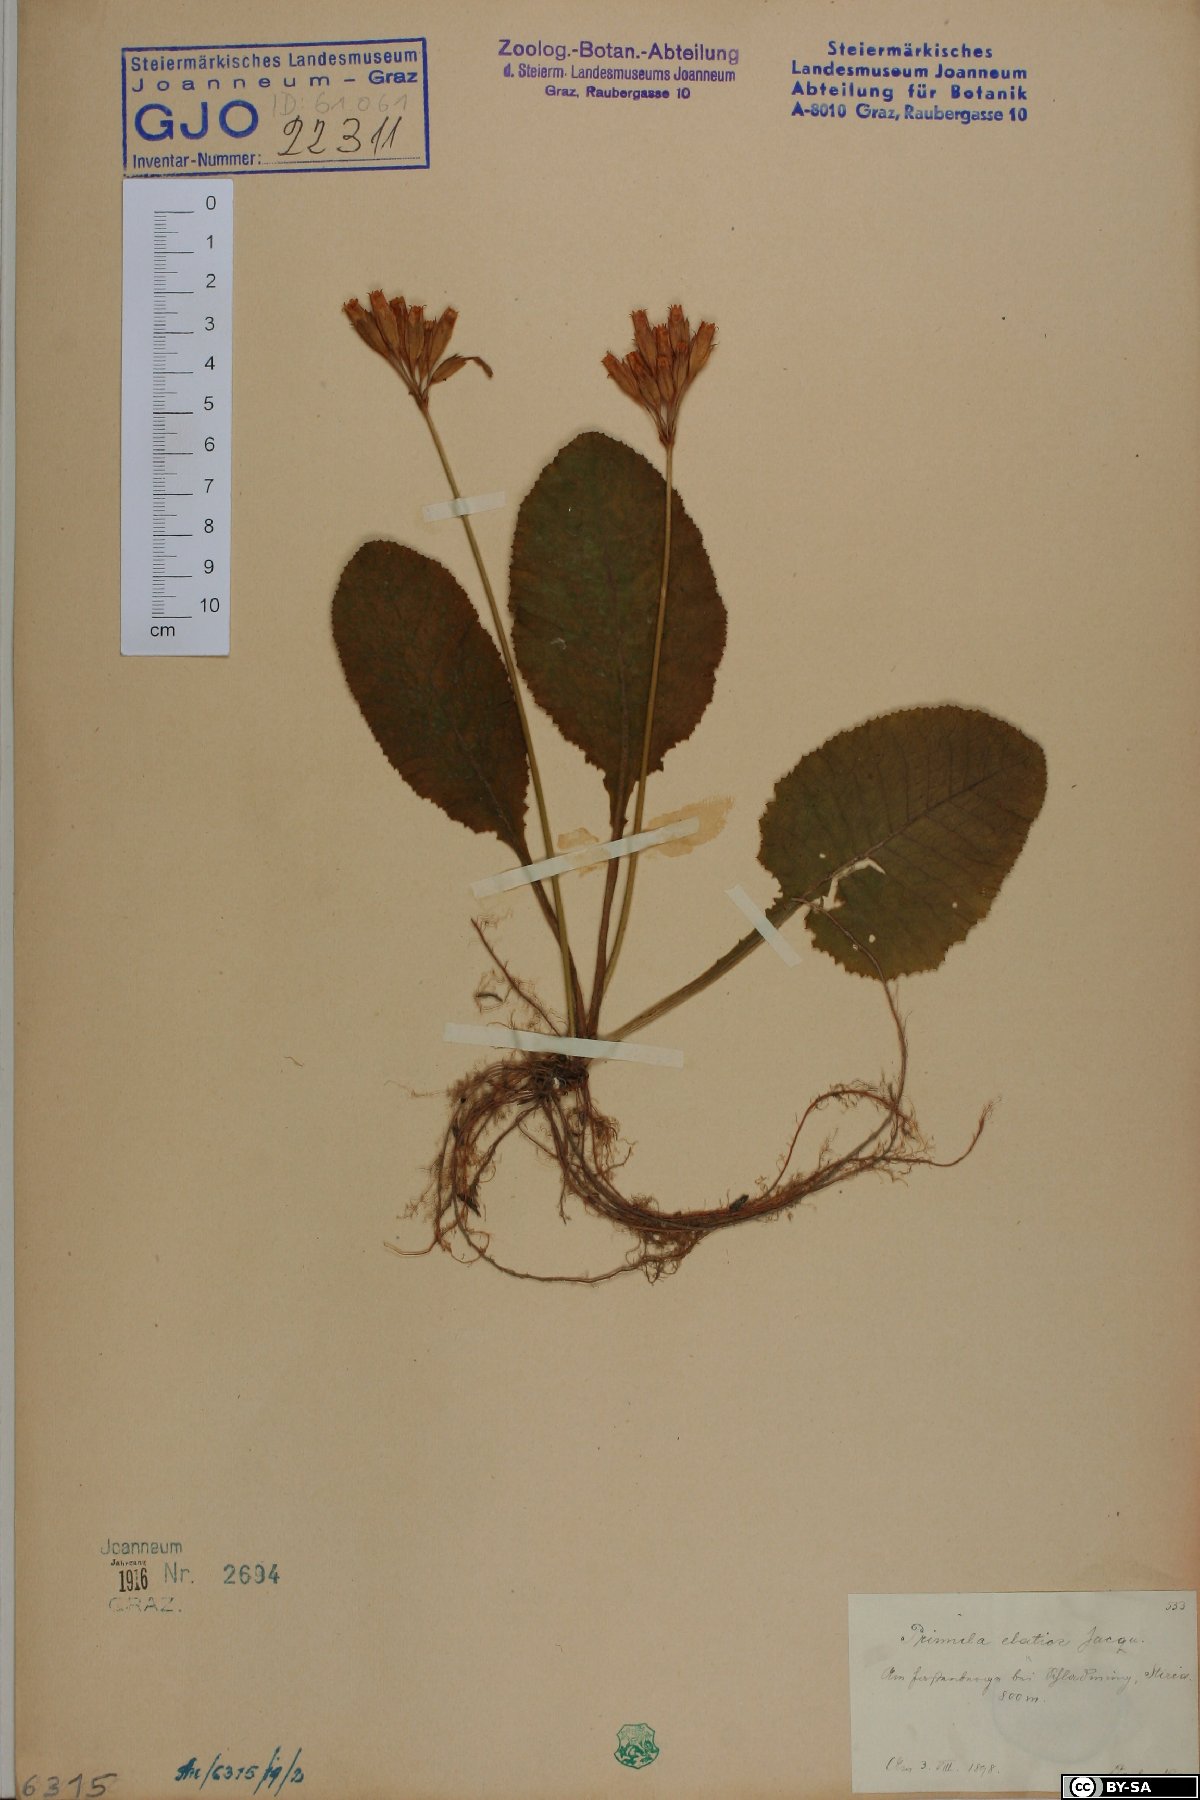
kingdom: Plantae
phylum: Tracheophyta
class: Magnoliopsida
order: Ericales
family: Primulaceae
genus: Primula
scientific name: Primula elatior
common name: Oxlip
